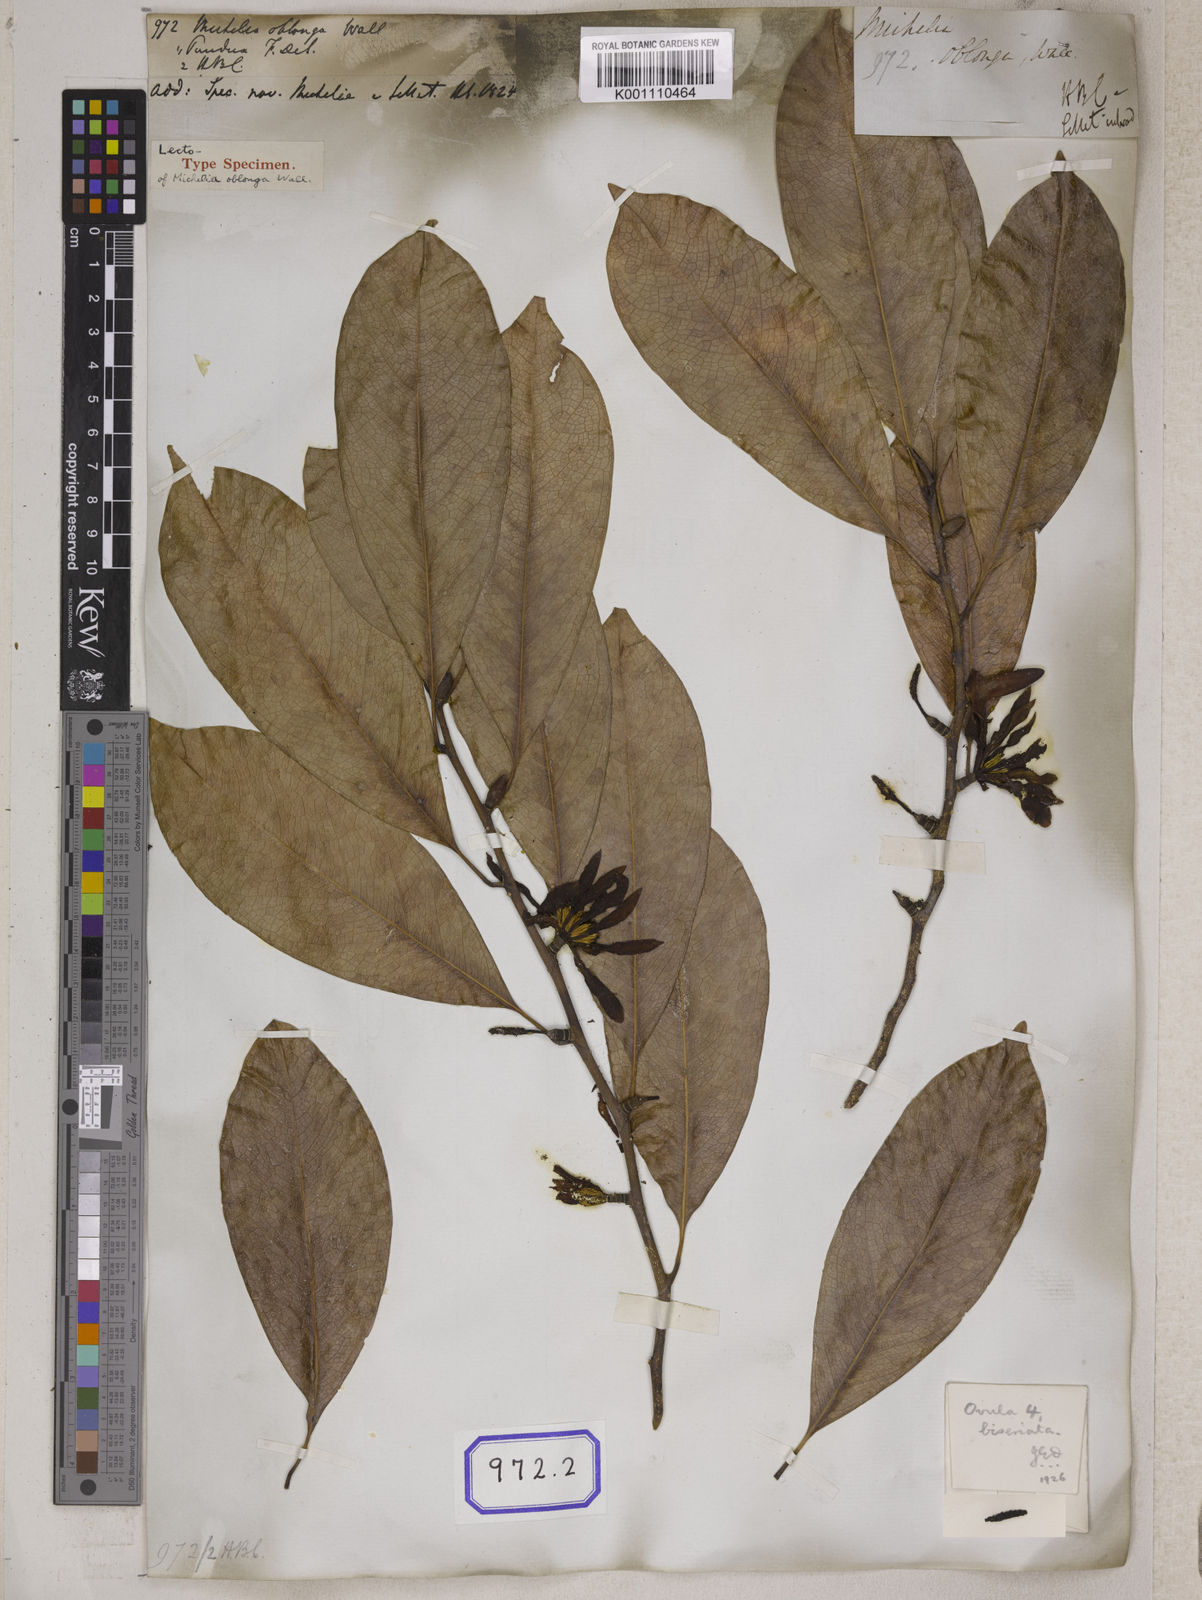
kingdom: Plantae
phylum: Tracheophyta
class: Magnoliopsida
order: Magnoliales
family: Magnoliaceae
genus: Michelia
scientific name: Michelia
